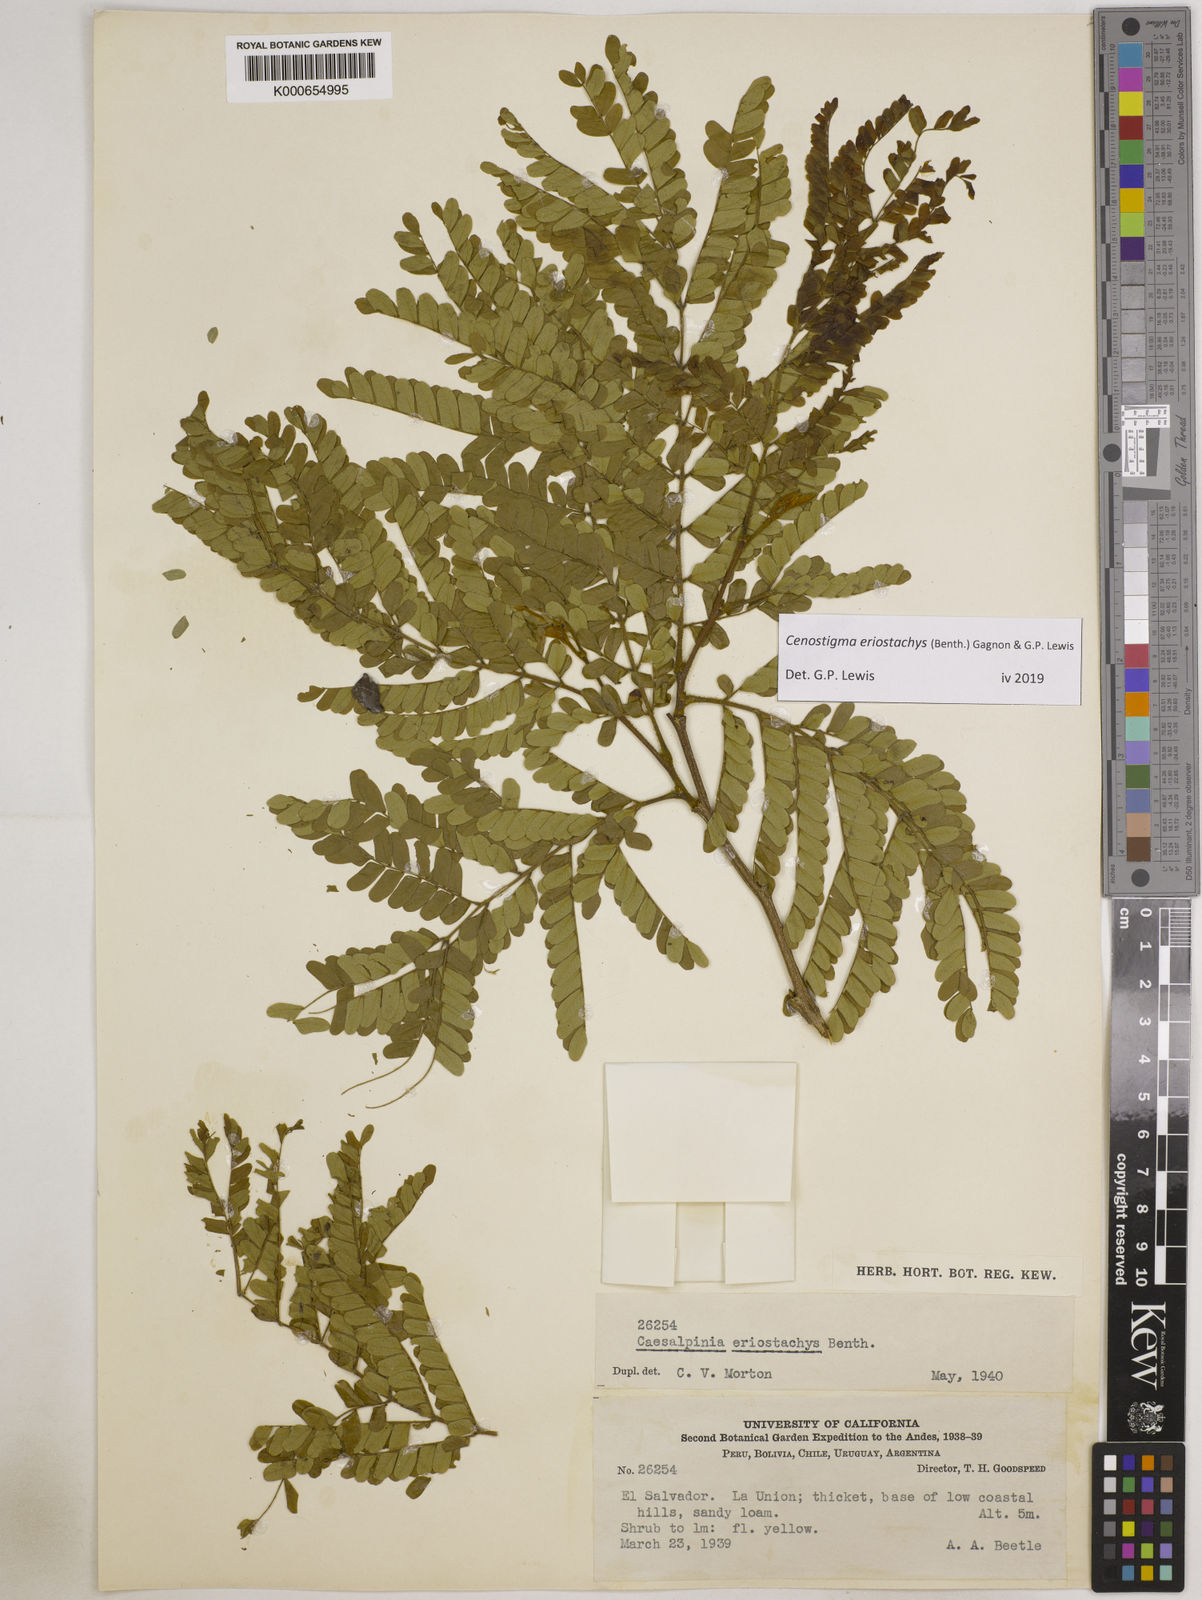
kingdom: Plantae
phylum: Tracheophyta
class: Magnoliopsida
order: Fabales
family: Fabaceae
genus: Cenostigma
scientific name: Cenostigma eriostachys
